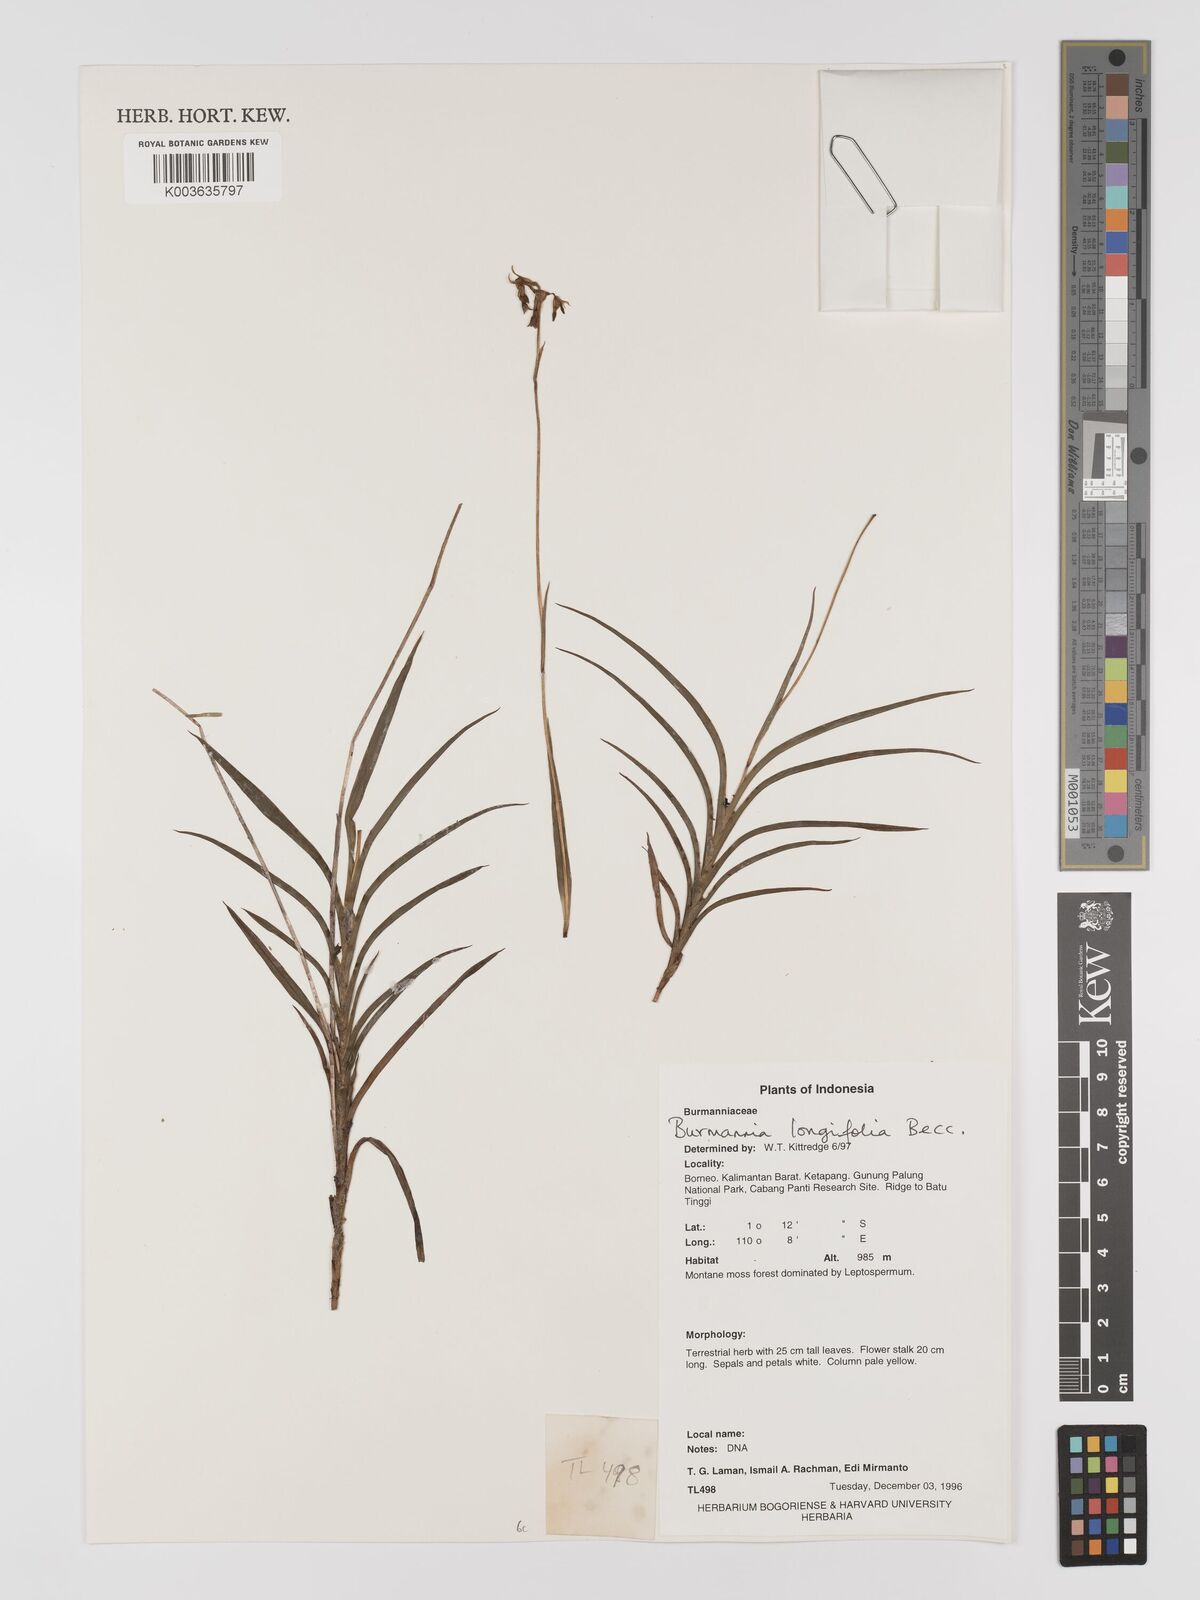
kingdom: Plantae
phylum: Tracheophyta
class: Liliopsida
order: Dioscoreales
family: Burmanniaceae
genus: Burmannia
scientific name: Burmannia longifolia
